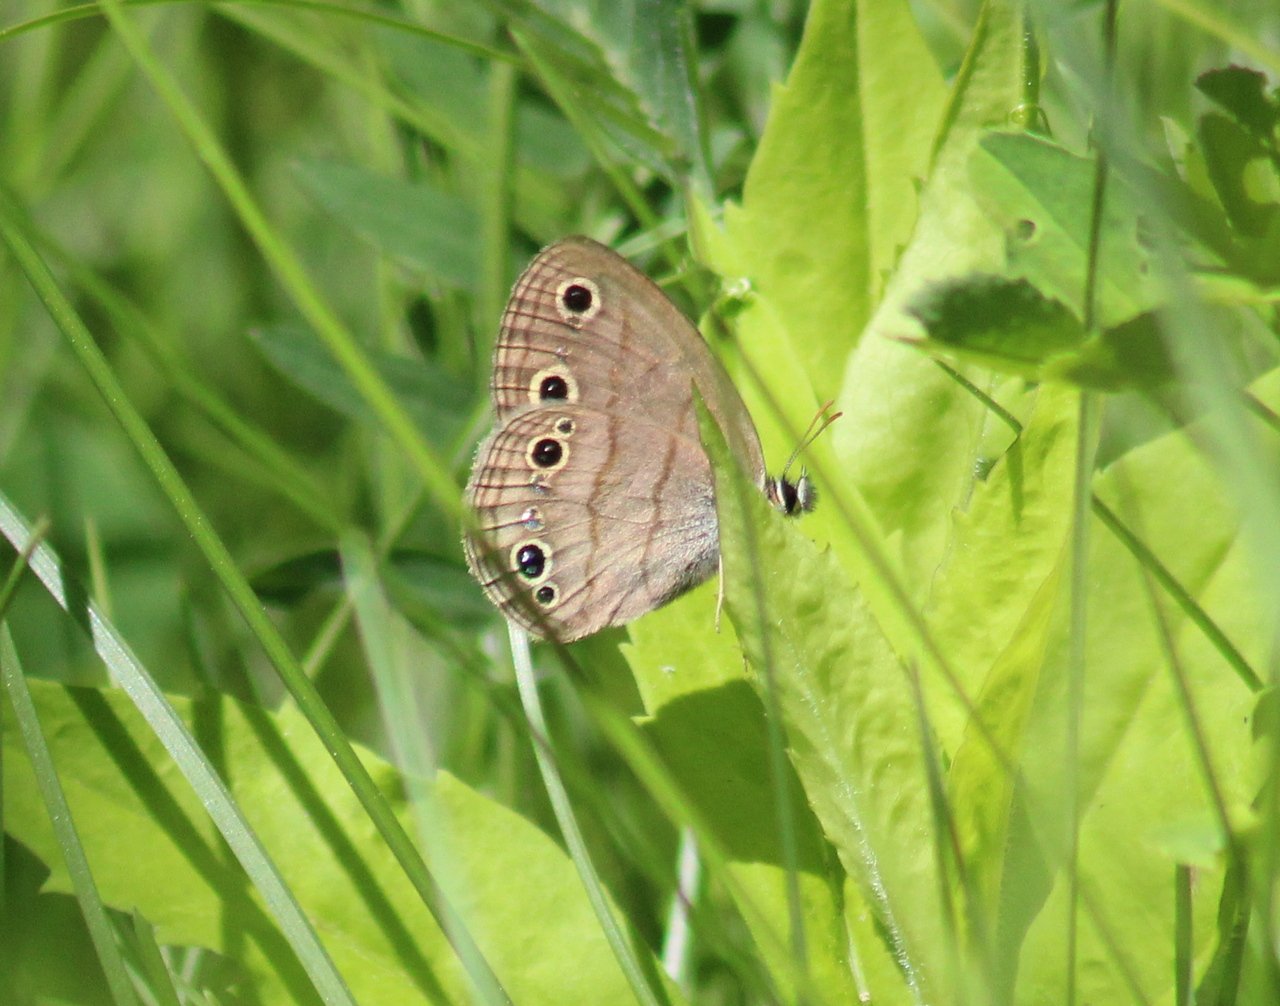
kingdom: Animalia
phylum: Arthropoda
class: Insecta
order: Lepidoptera
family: Nymphalidae
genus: Euptychia
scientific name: Euptychia cymela
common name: Little Wood Satyr
